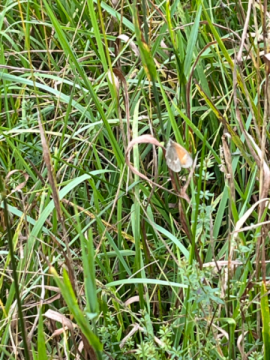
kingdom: Animalia
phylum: Arthropoda
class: Insecta
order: Lepidoptera
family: Nymphalidae
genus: Coenonympha
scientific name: Coenonympha tullia
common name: Large Heath
